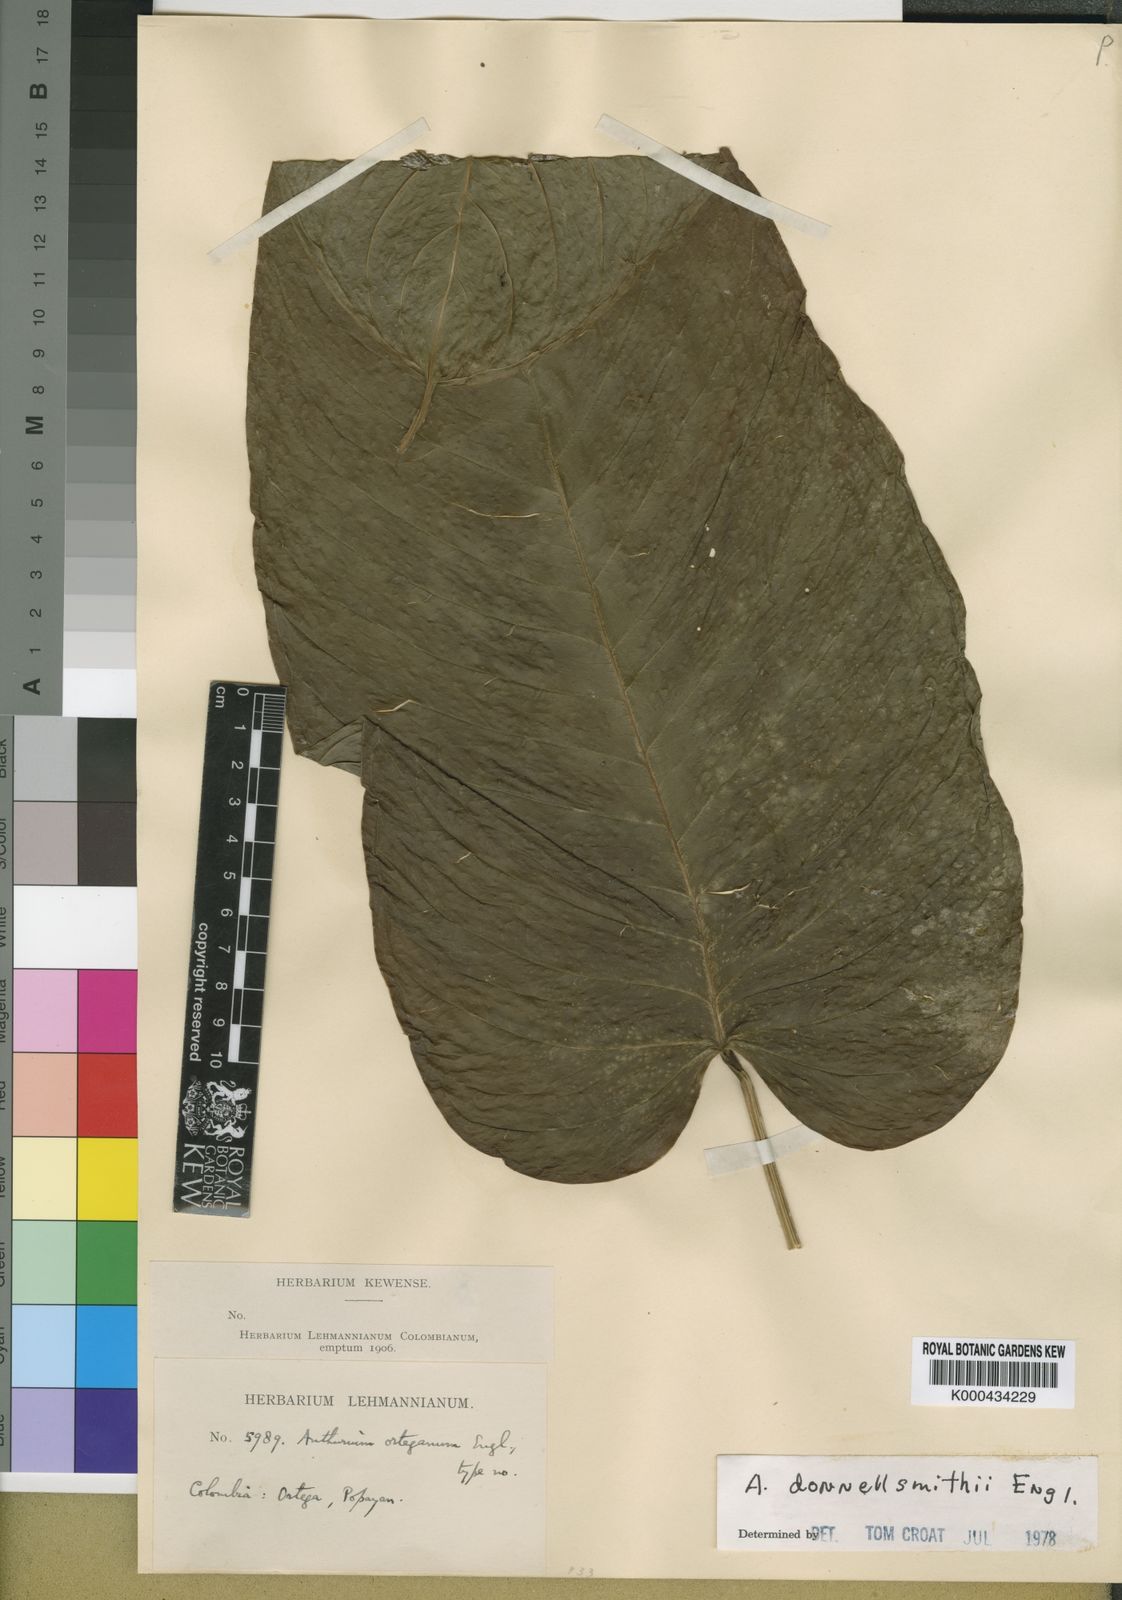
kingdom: Plantae
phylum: Tracheophyta
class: Liliopsida
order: Alismatales
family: Araceae
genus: Anthurium
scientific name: Anthurium talamancae
